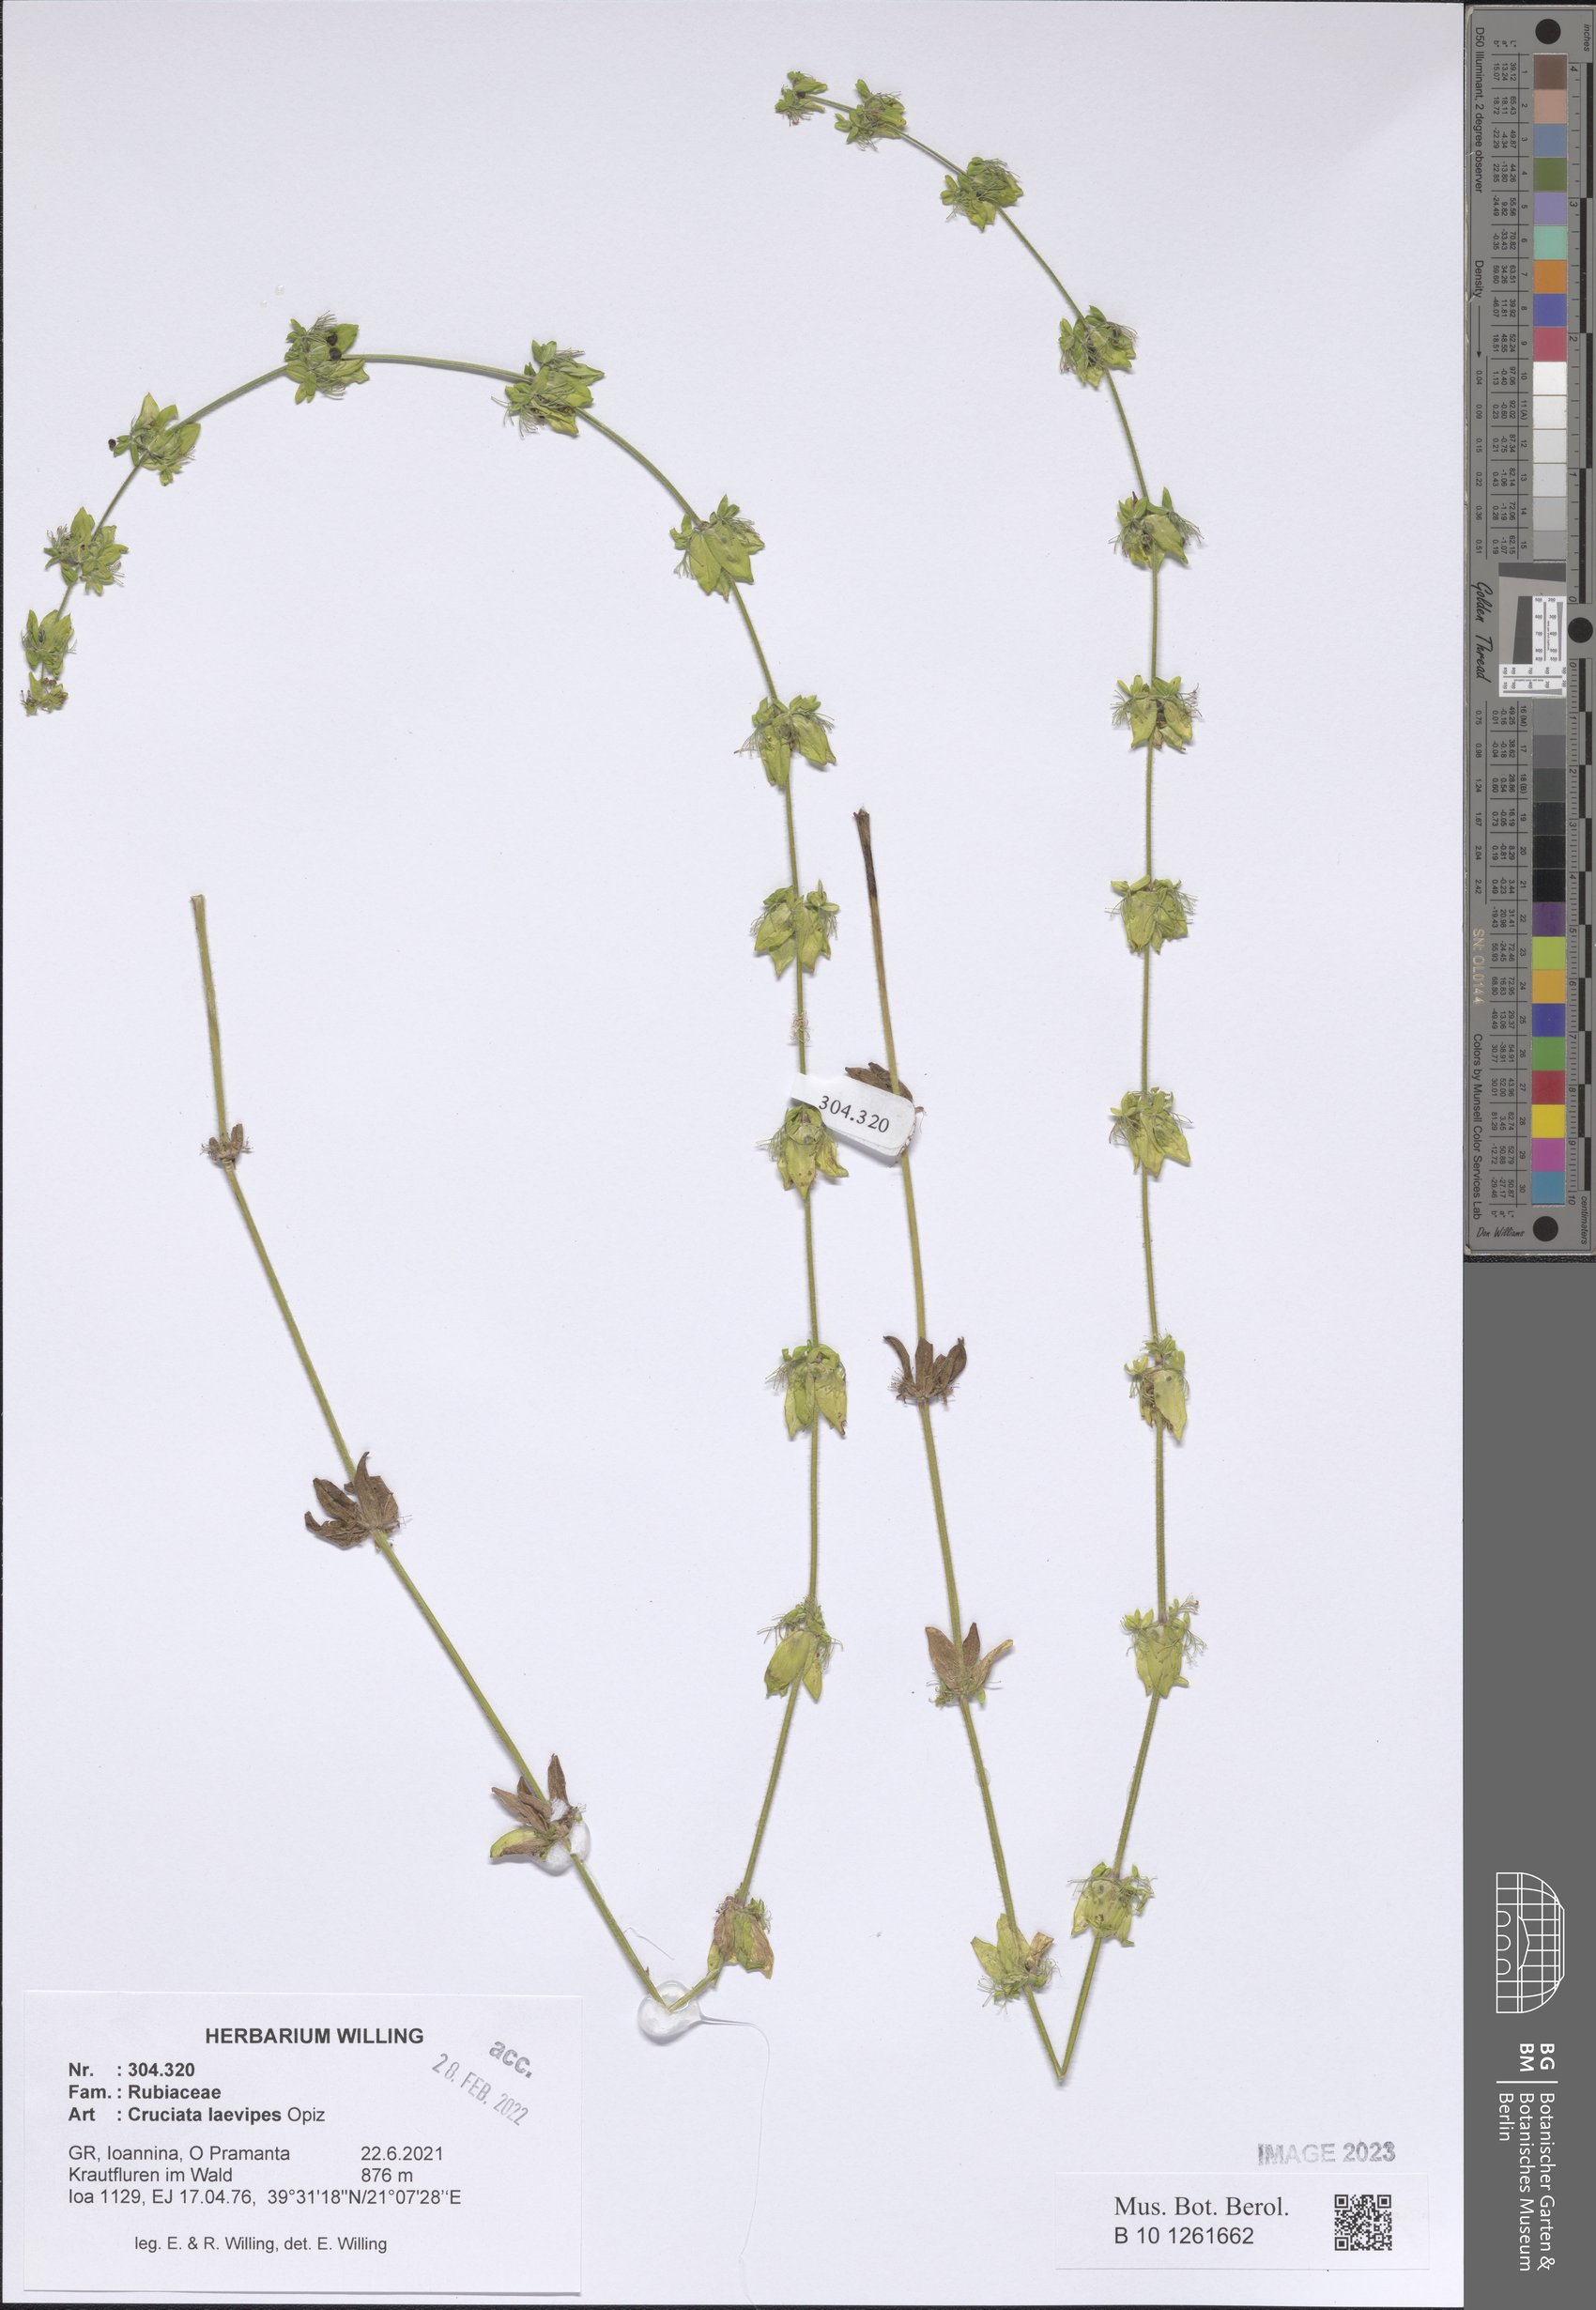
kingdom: Plantae
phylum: Tracheophyta
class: Magnoliopsida
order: Gentianales
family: Rubiaceae
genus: Cruciata
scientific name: Cruciata laevipes
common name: Crosswort
